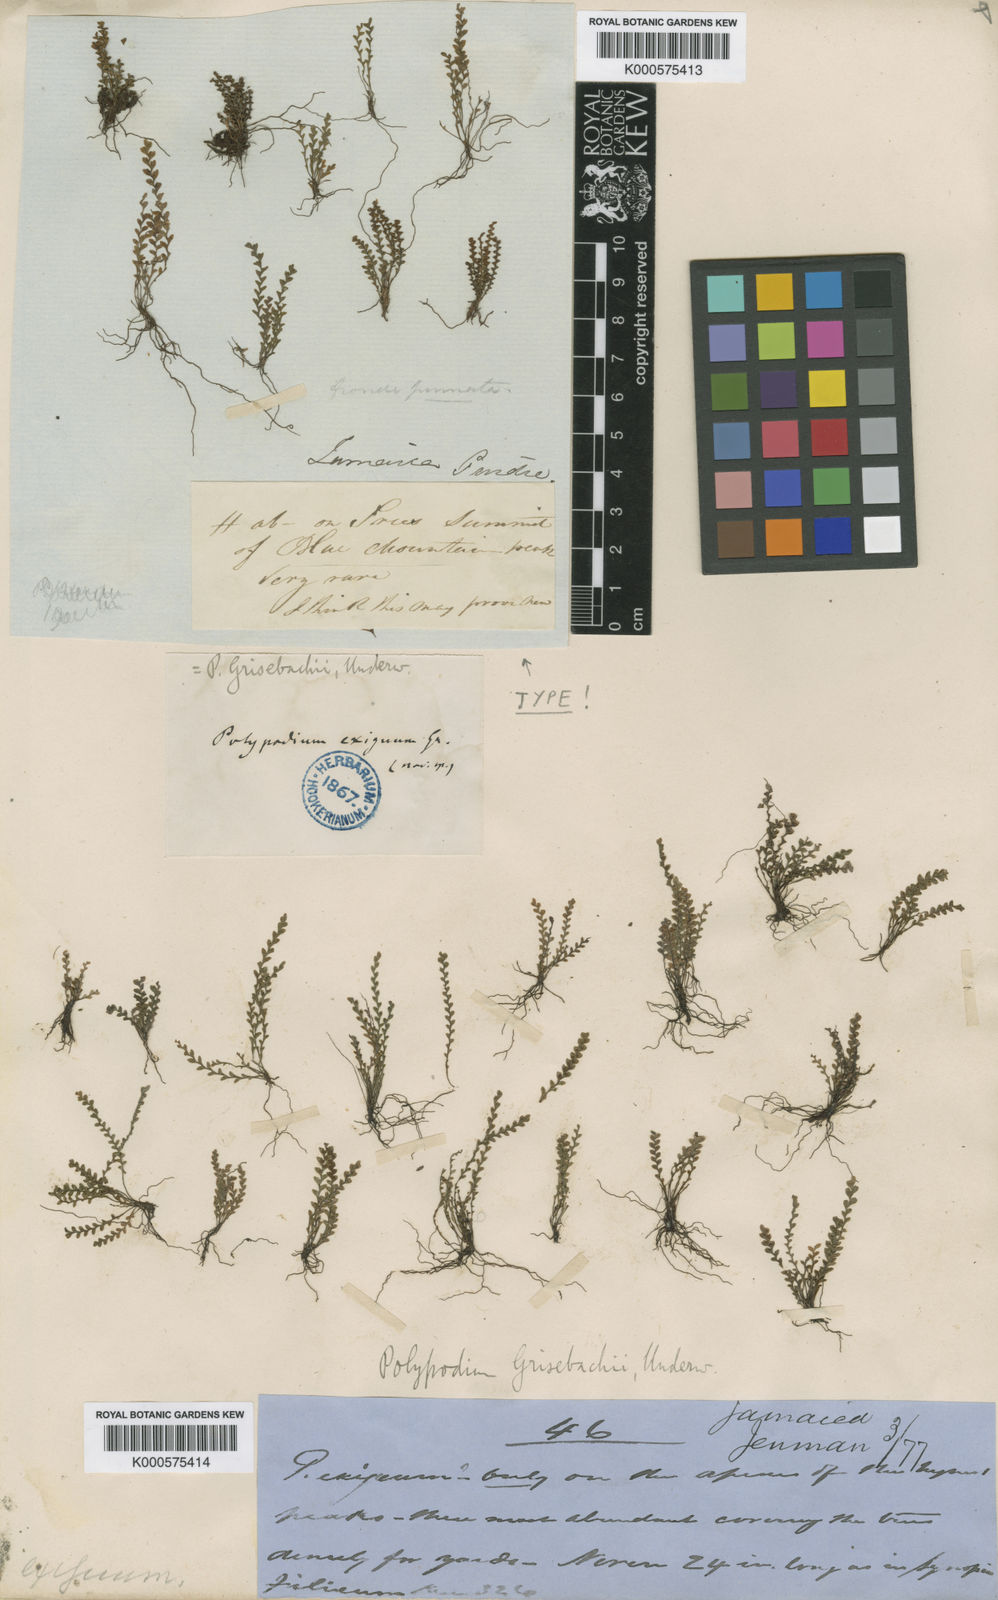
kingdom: Plantae
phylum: Tracheophyta
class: Polypodiopsida
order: Polypodiales
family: Polypodiaceae
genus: Moranopteris
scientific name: Moranopteris grisebachii
